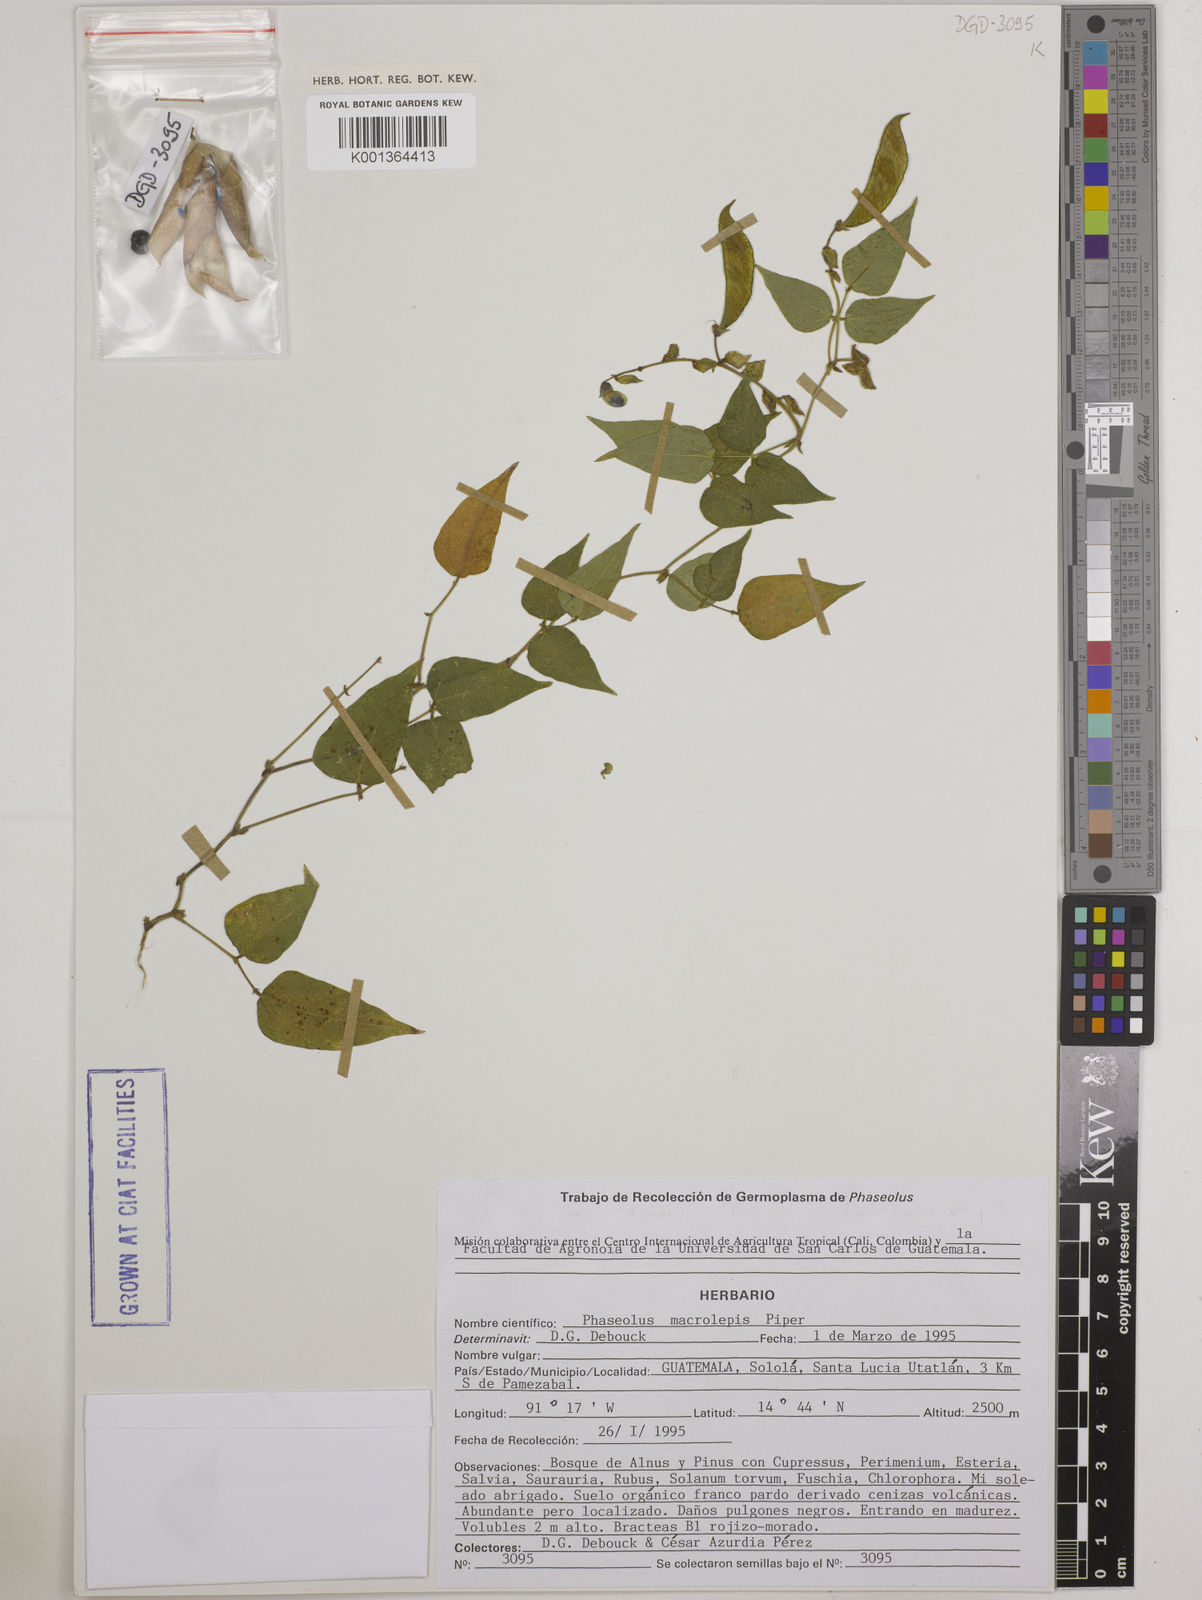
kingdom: Plantae
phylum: Tracheophyta
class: Magnoliopsida
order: Fabales
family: Fabaceae
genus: Phaseolus
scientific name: Phaseolus macrolepis
